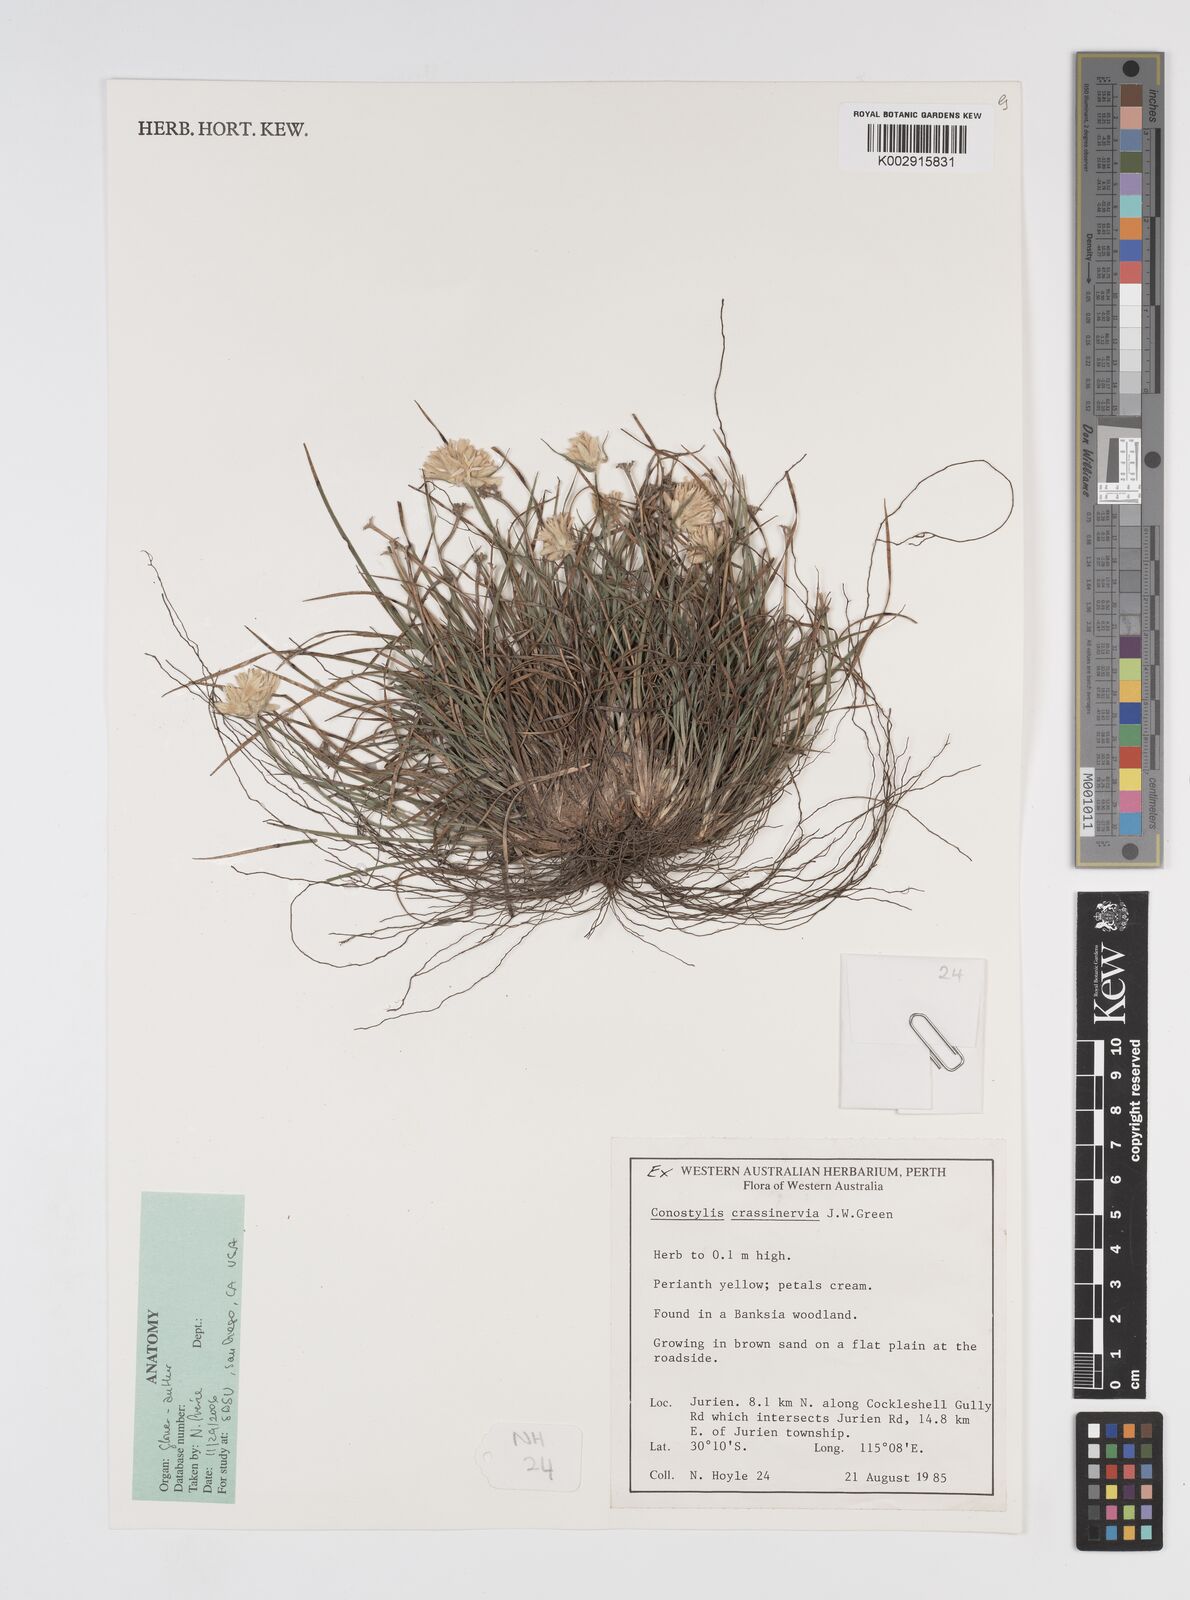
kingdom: Plantae
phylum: Tracheophyta
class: Liliopsida
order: Commelinales
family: Haemodoraceae
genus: Conostylis
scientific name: Conostylis crassinerva
